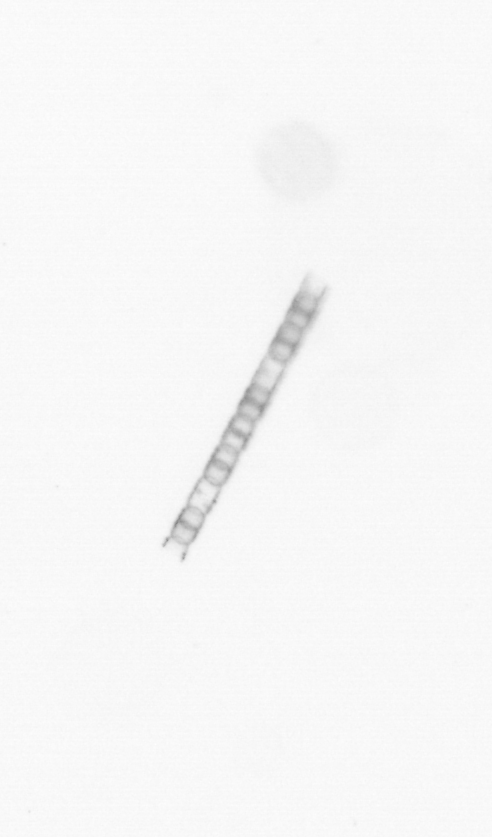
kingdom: Chromista
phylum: Ochrophyta
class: Bacillariophyceae
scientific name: Bacillariophyceae
